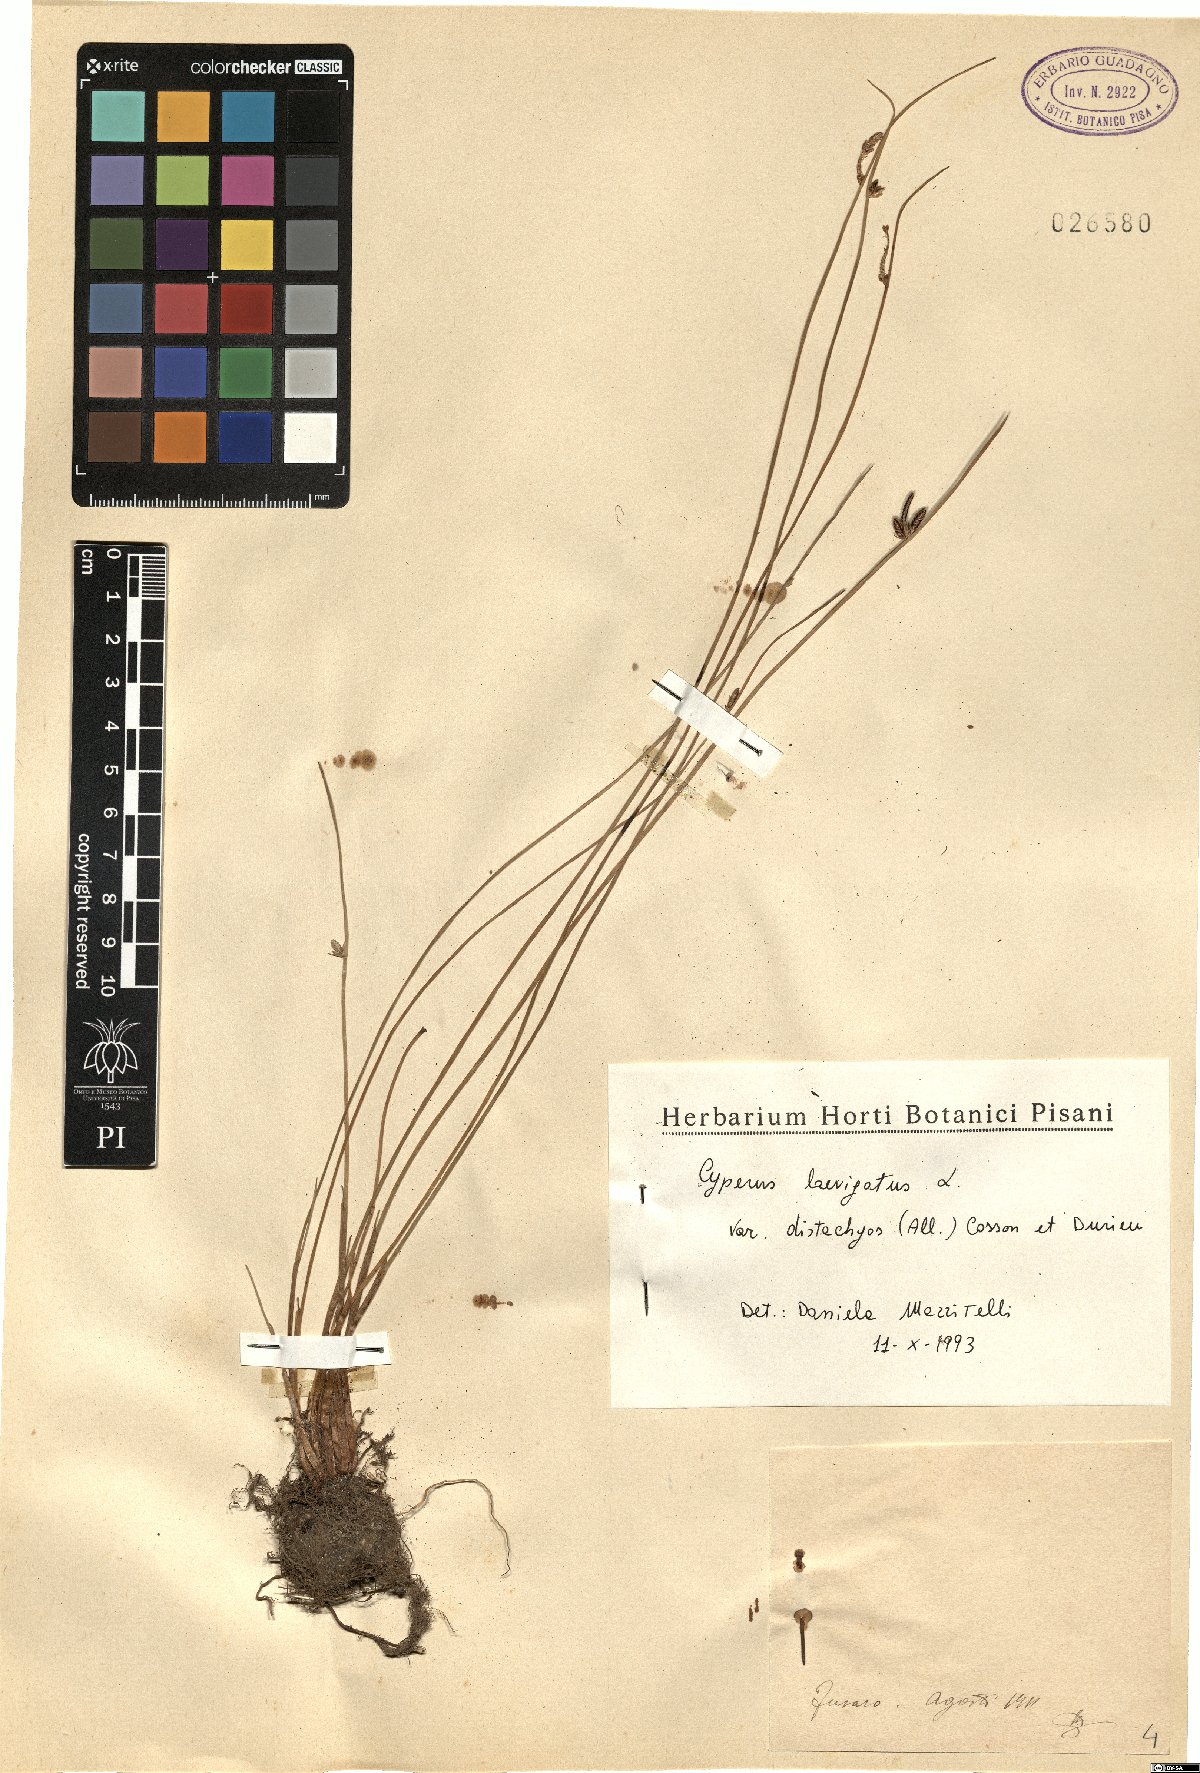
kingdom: Plantae
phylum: Tracheophyta
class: Liliopsida
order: Poales
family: Cyperaceae
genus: Cyperus
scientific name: Cyperus laevigatus
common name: Smooth flat sedge
